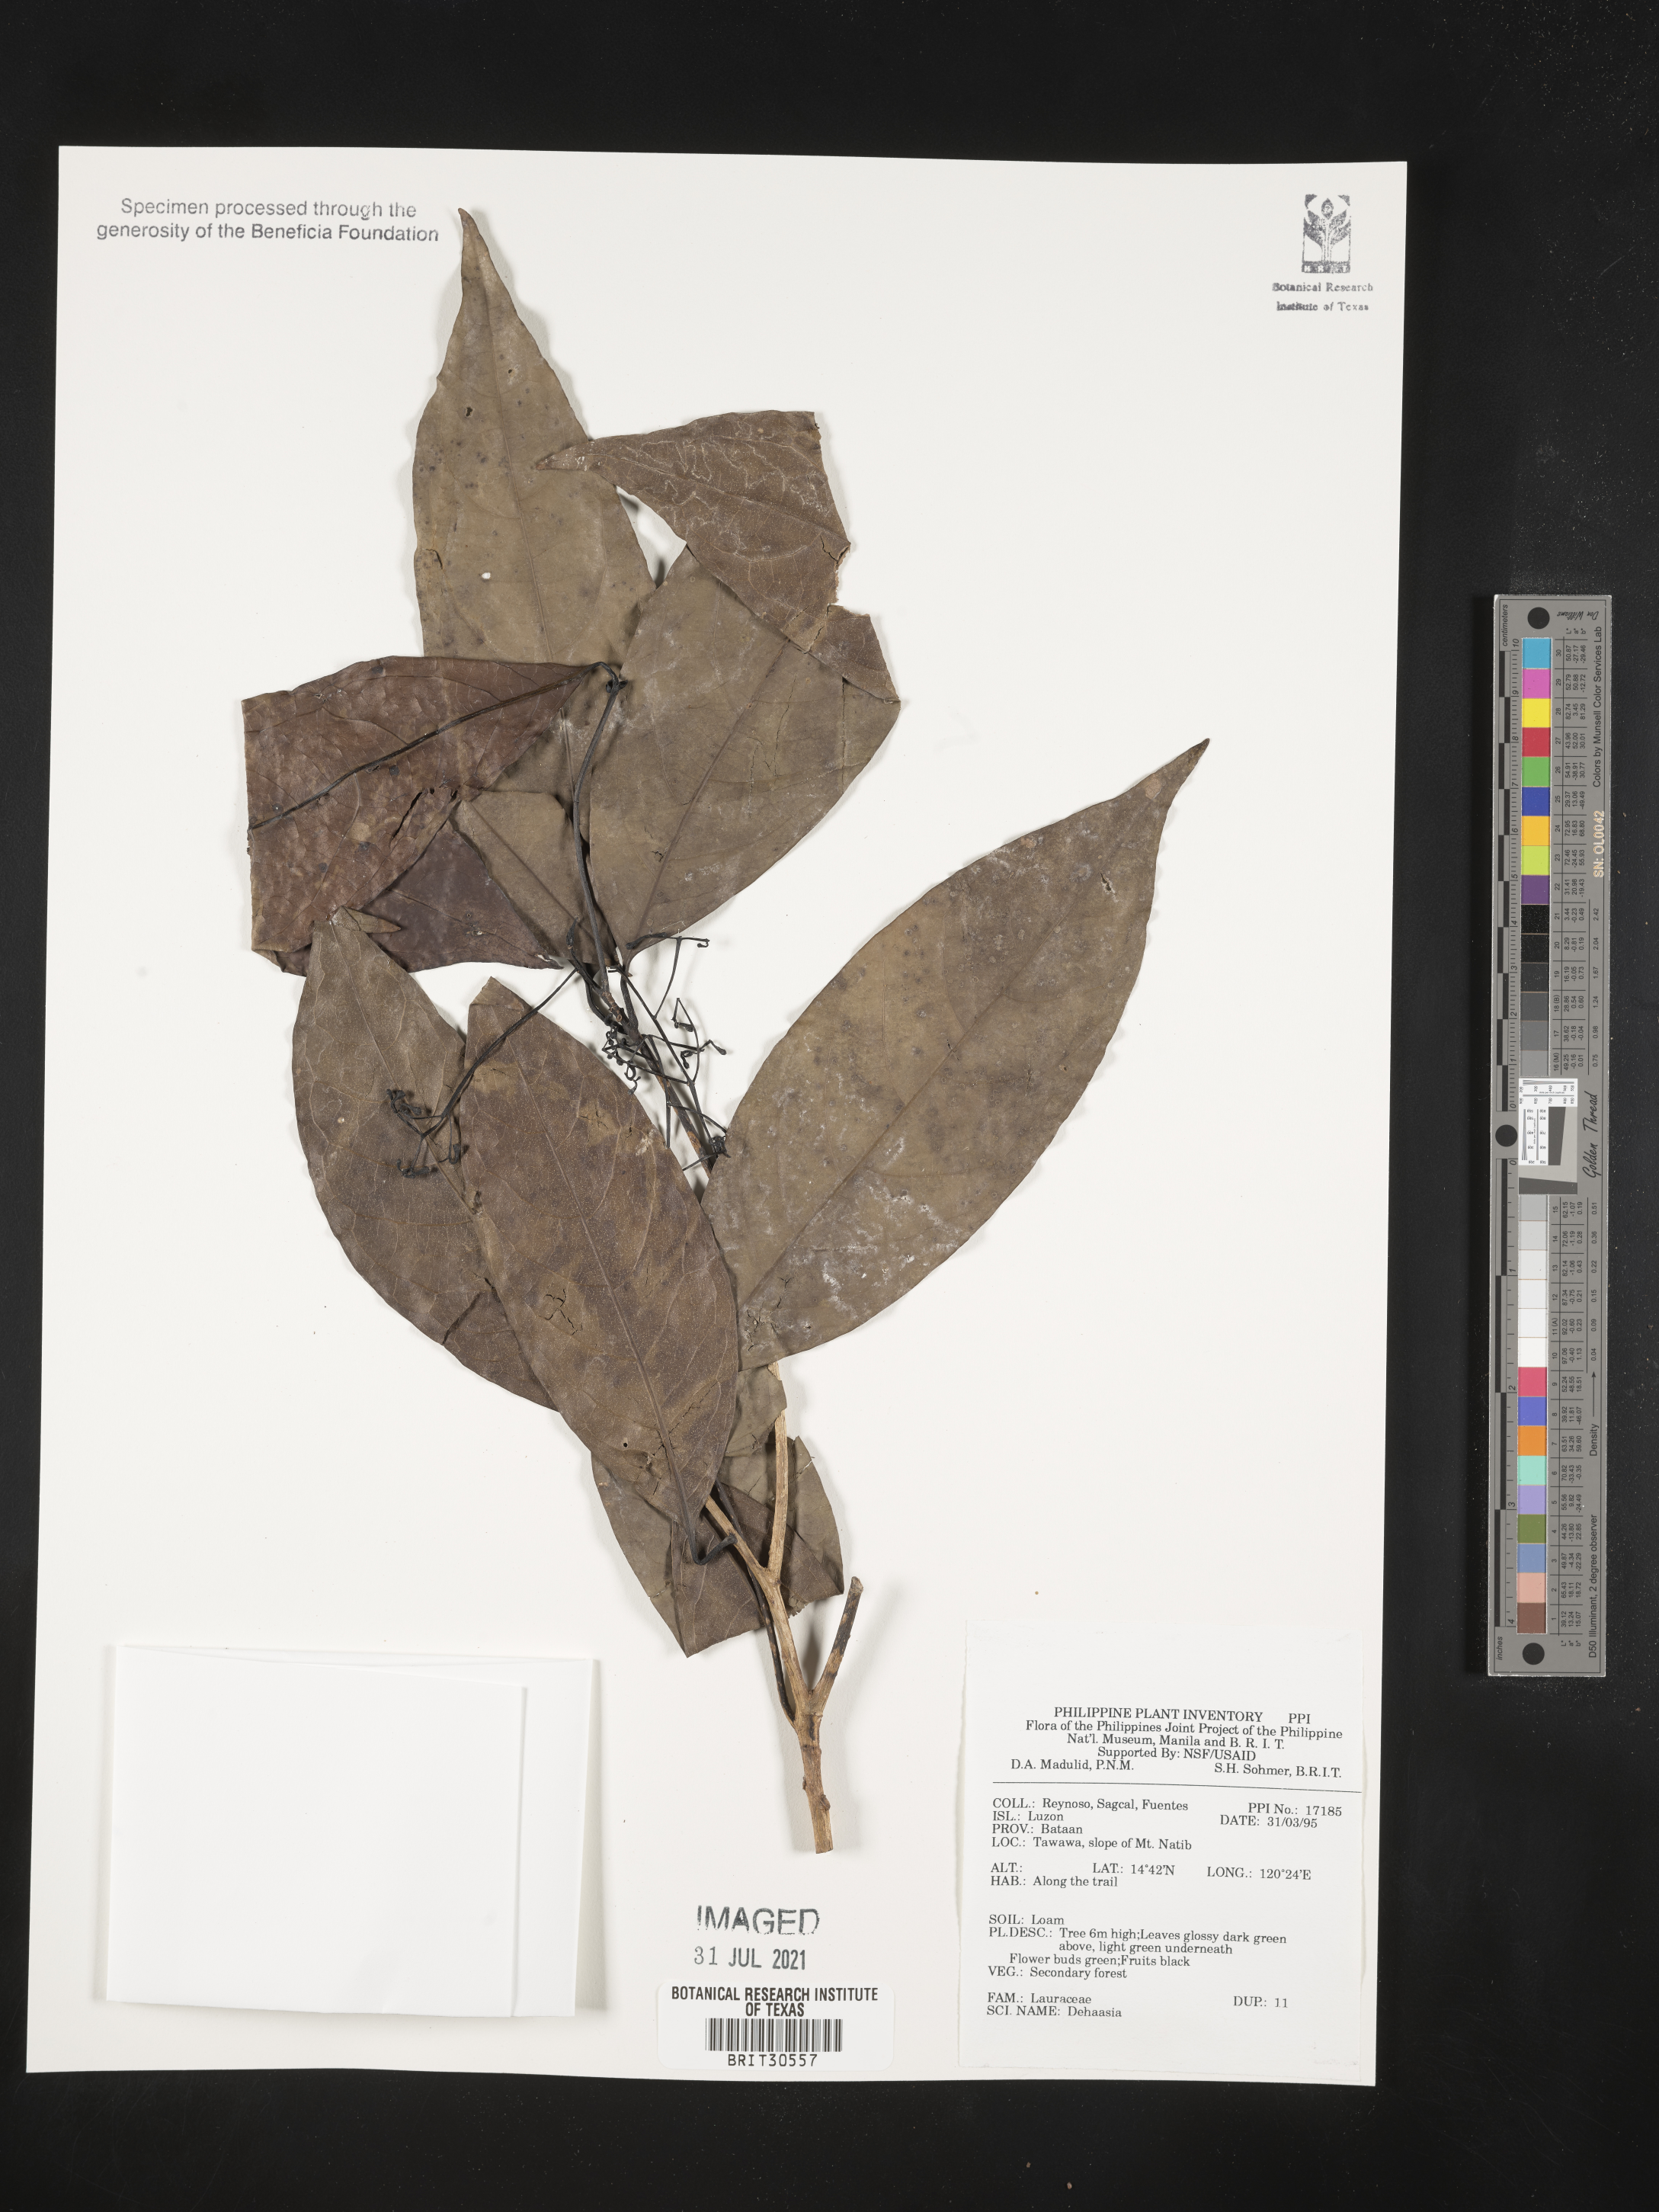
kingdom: Plantae
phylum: Tracheophyta
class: Magnoliopsida
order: Laurales
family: Lauraceae
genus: Dehaasia
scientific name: Dehaasia
